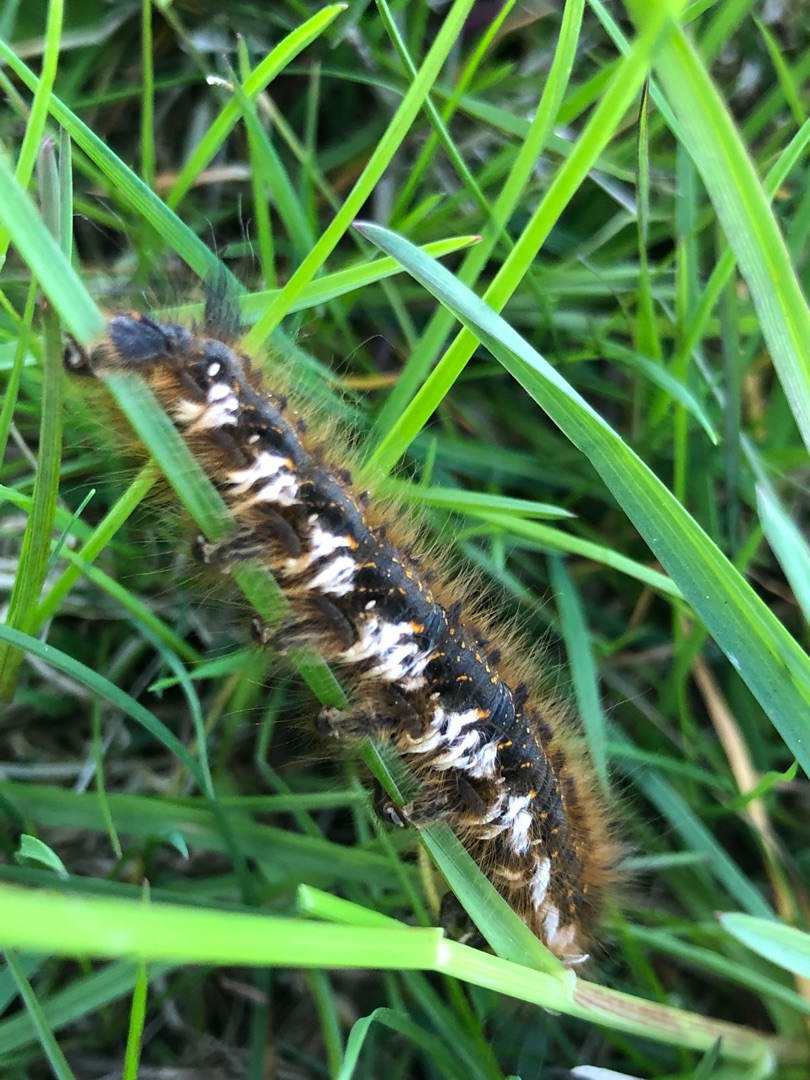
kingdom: Animalia
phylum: Arthropoda
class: Insecta
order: Lepidoptera
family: Lasiocampidae
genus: Euthrix
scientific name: Euthrix potatoria
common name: Græsspinder
